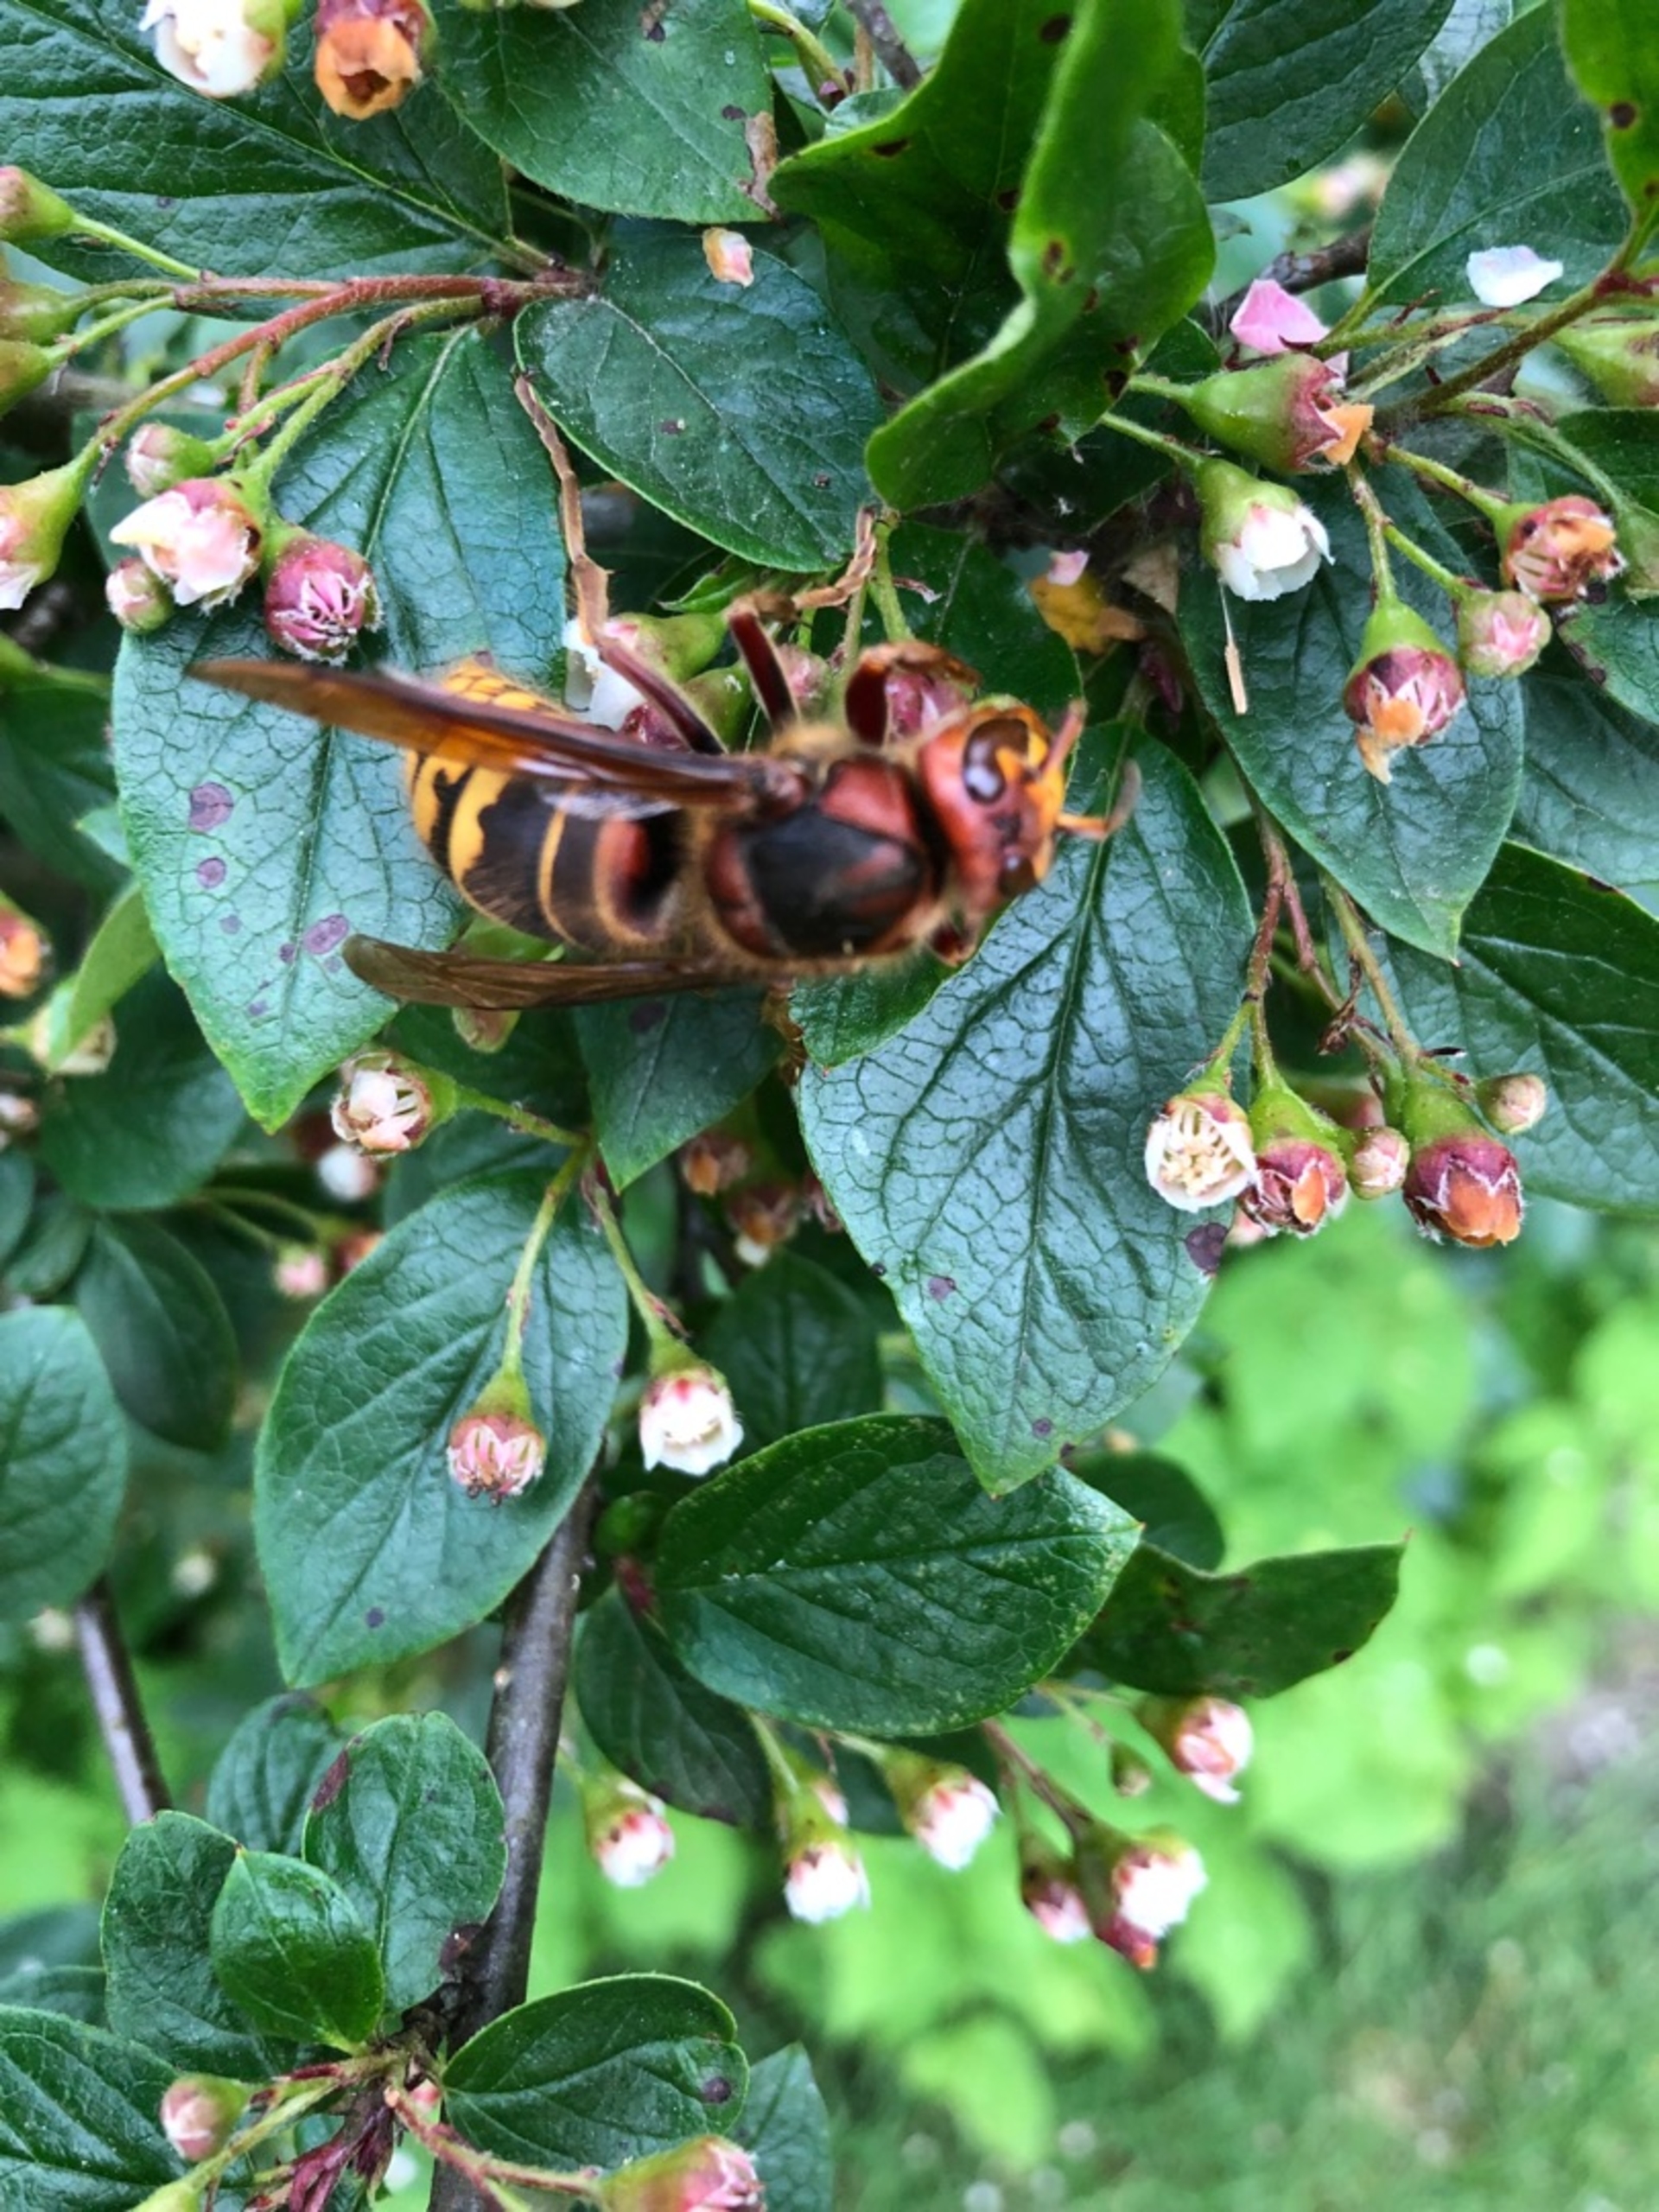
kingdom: Animalia
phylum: Arthropoda
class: Insecta
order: Hymenoptera
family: Vespidae
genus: Vespa
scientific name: Vespa crabro
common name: Stor gedehams
